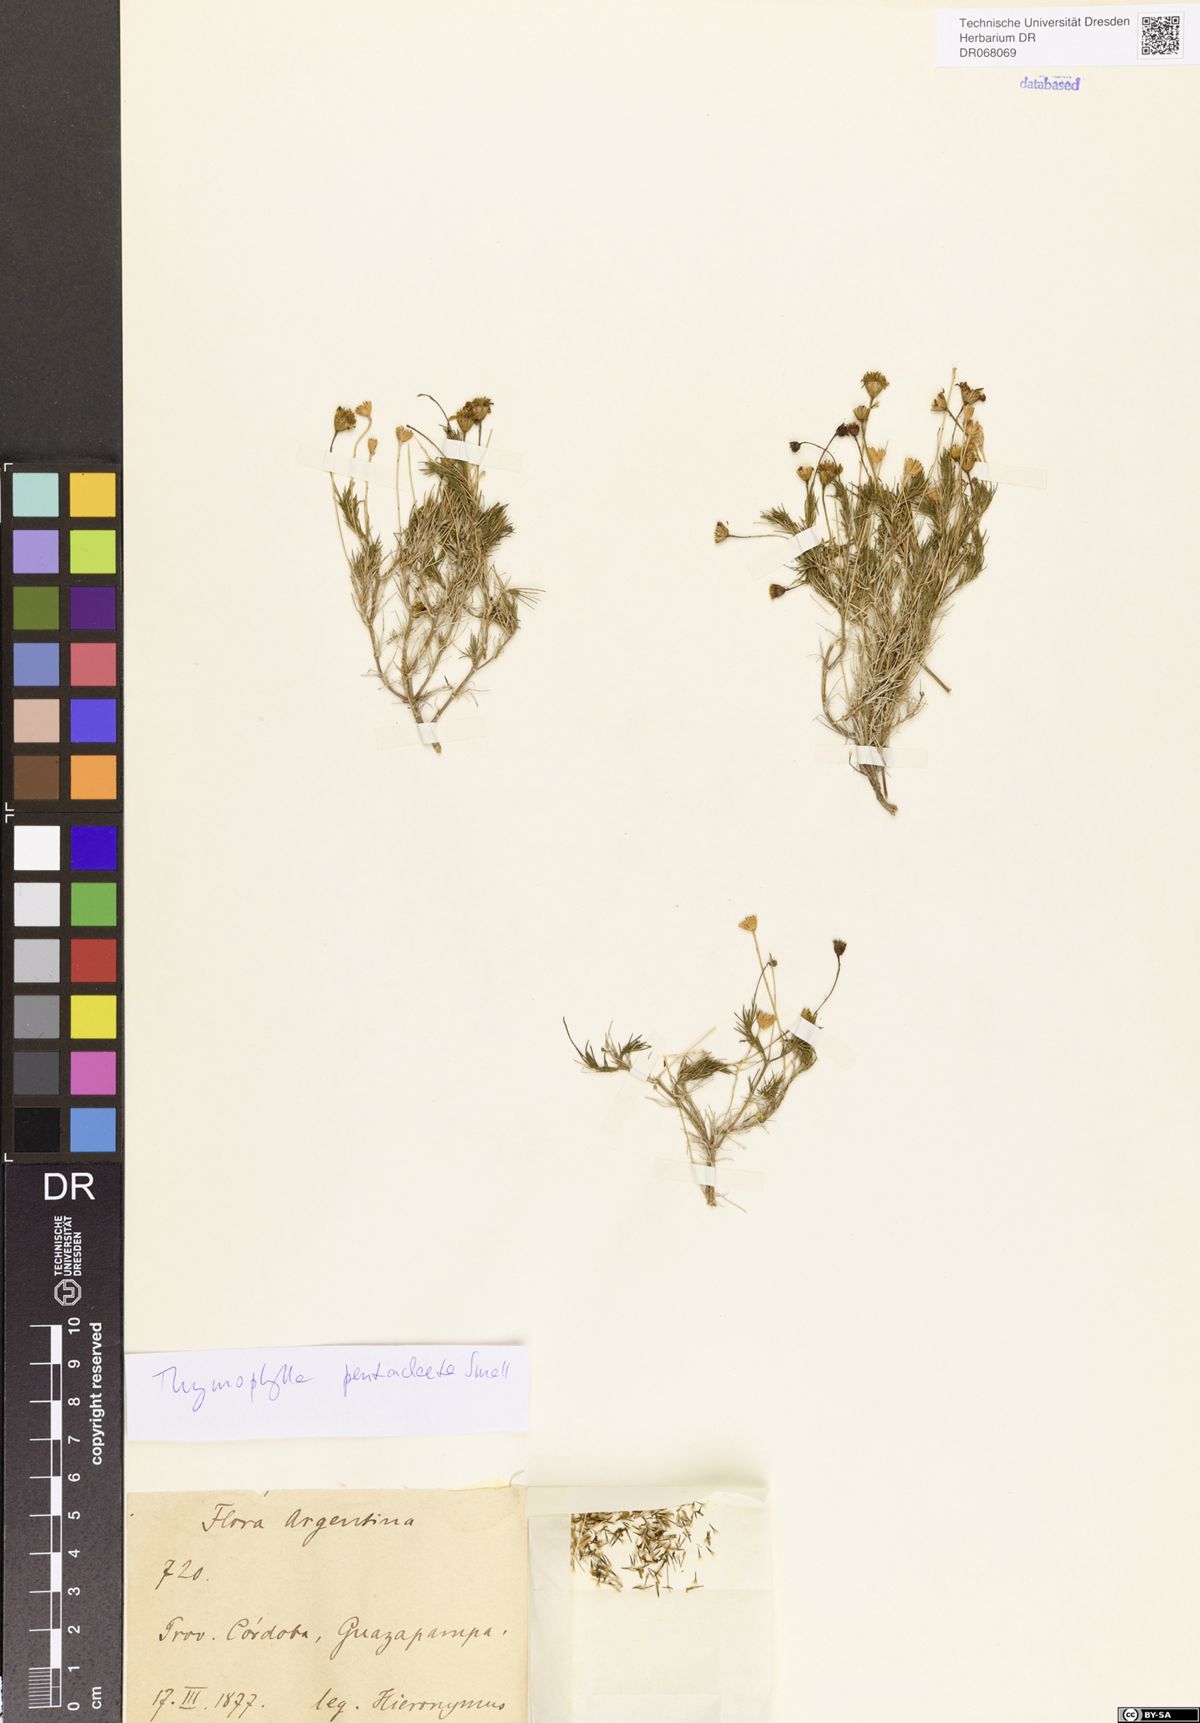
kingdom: Plantae
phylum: Tracheophyta
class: Magnoliopsida
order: Asterales
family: Asteraceae
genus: Thymophylla
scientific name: Thymophylla pentachaeta
